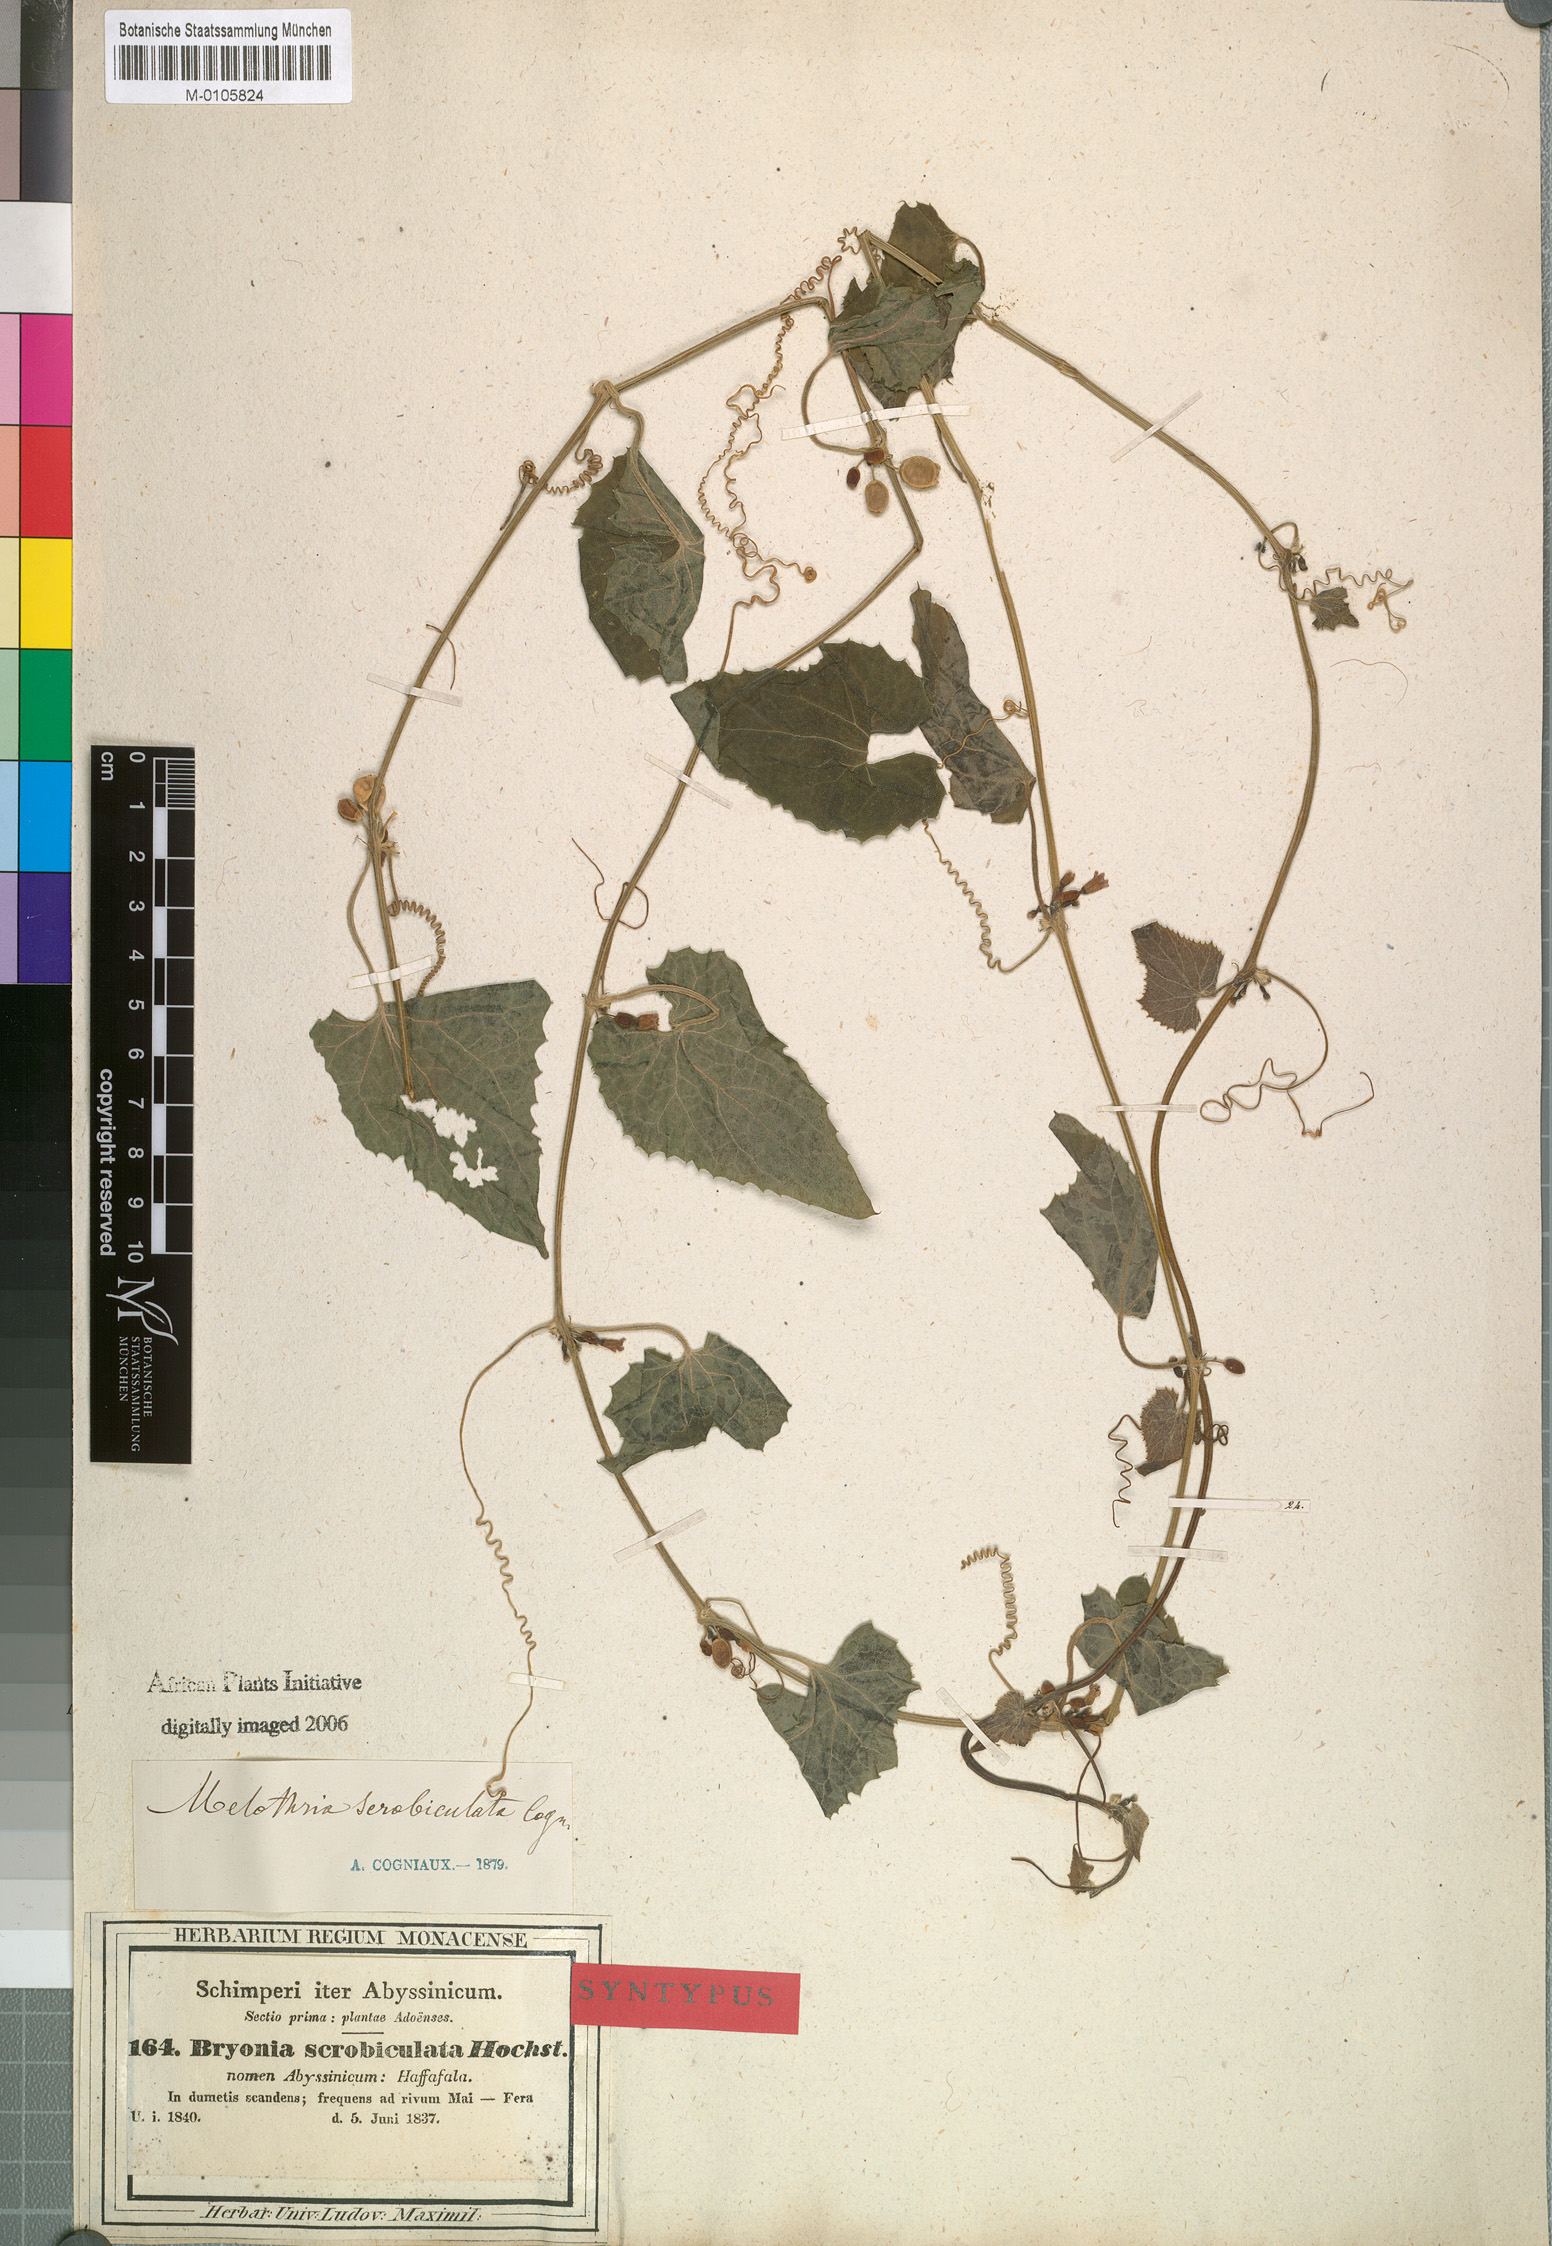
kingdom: Plantae
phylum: Tracheophyta
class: Magnoliopsida
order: Cucurbitales
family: Cucurbitaceae
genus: Zehneria
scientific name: Zehneria scabra
